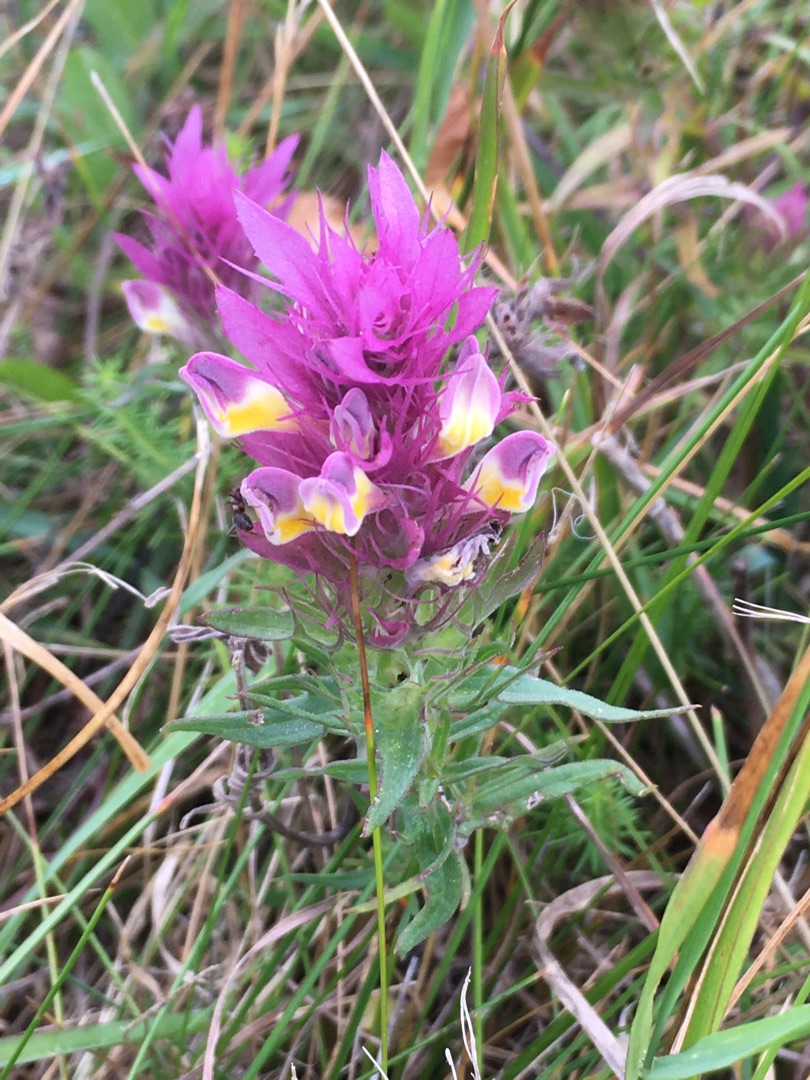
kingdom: Plantae
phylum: Tracheophyta
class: Magnoliopsida
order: Lamiales
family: Orobanchaceae
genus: Melampyrum
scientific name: Melampyrum arvense
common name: Ager-kohvede
